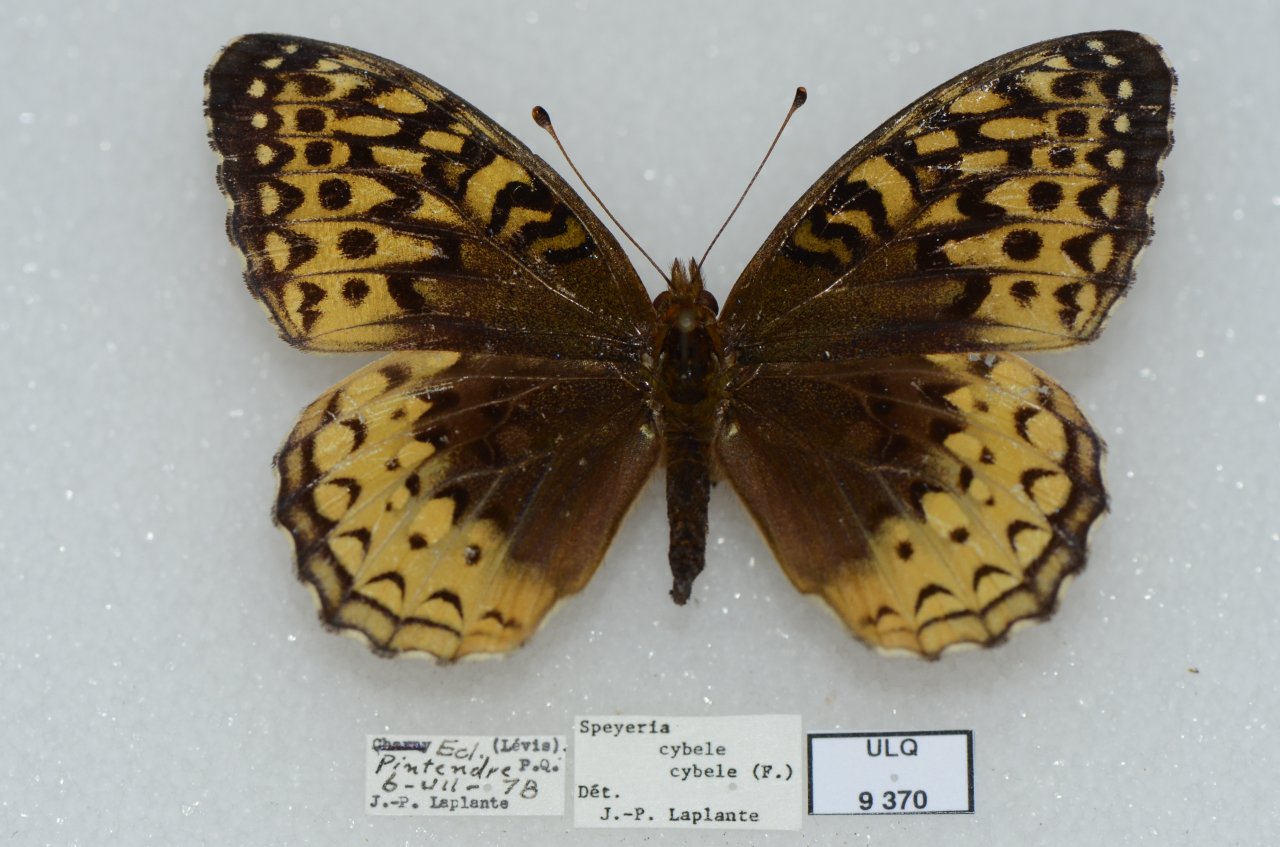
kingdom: Animalia
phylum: Arthropoda
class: Insecta
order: Lepidoptera
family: Nymphalidae
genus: Speyeria
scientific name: Speyeria cybele
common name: Great Spangled Fritillary
